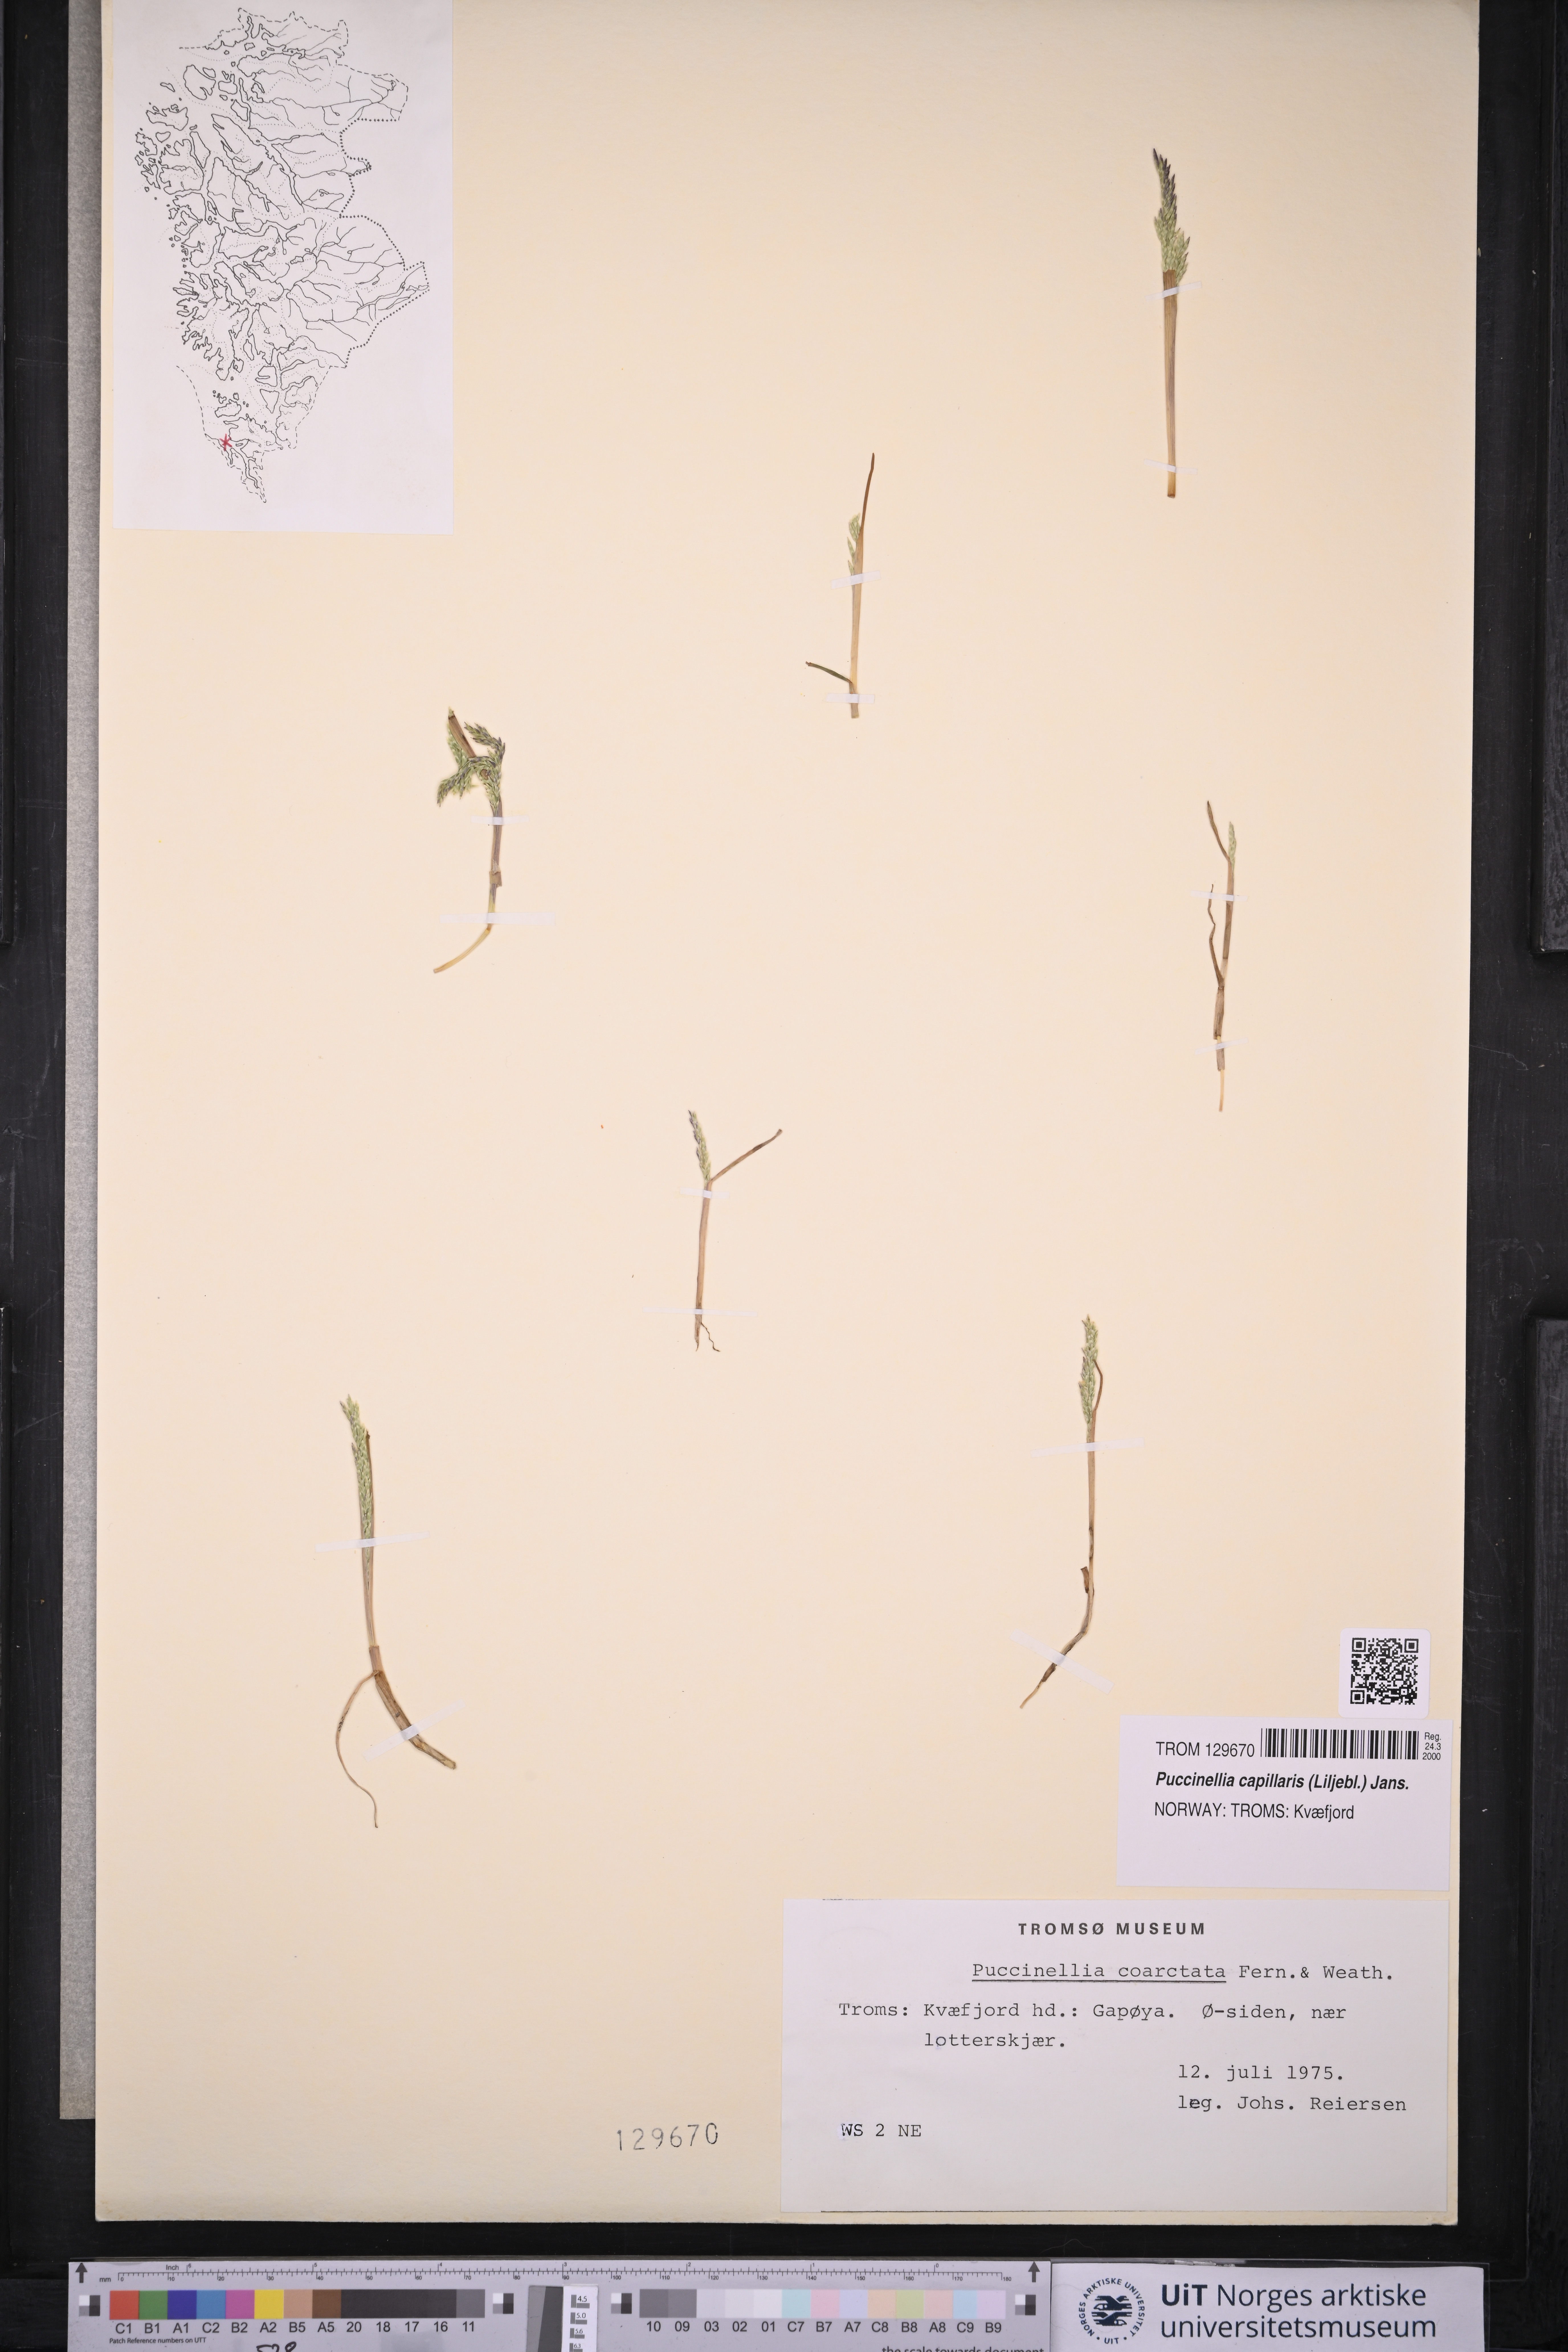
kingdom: Plantae
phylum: Tracheophyta
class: Liliopsida
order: Poales
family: Poaceae
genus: Puccinellia
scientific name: Puccinellia distans
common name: Weeping alkaligrass
